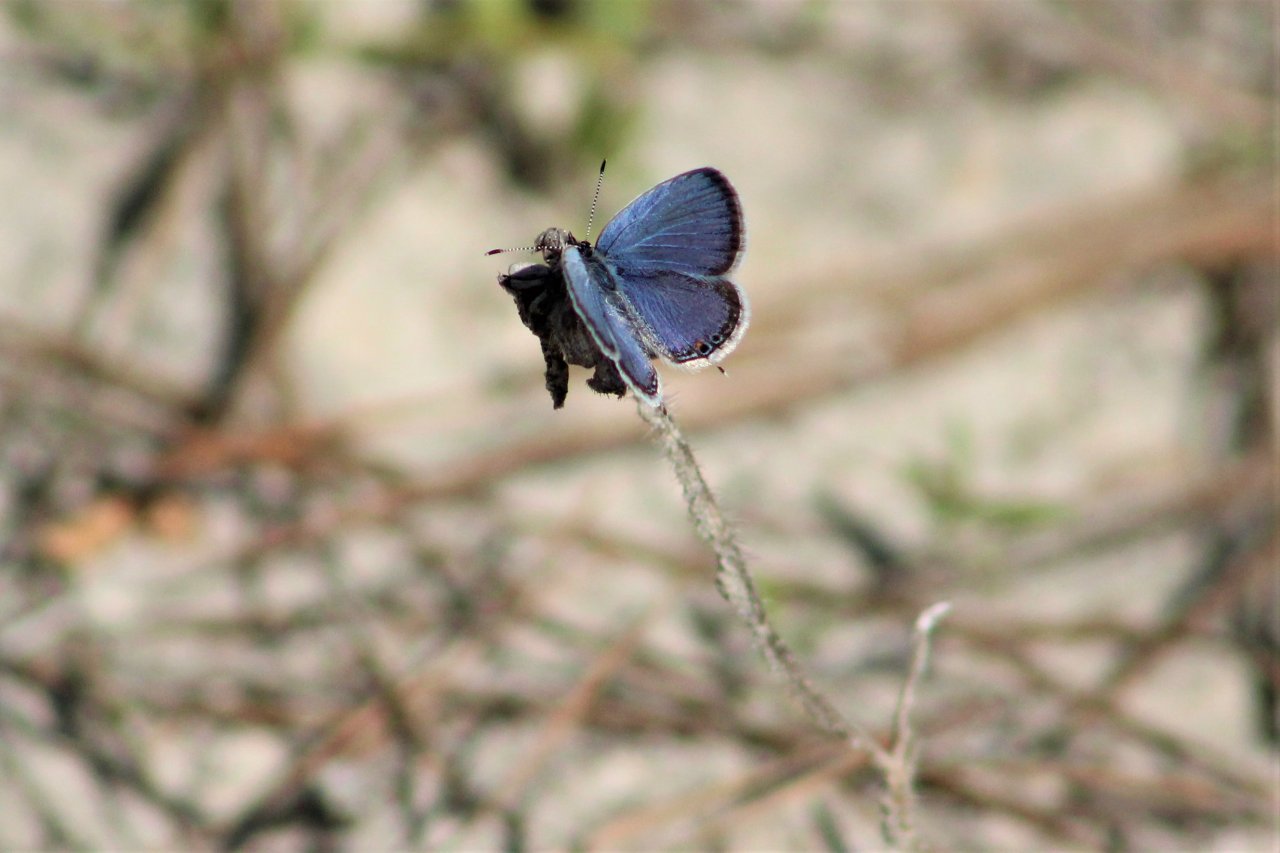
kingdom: Animalia
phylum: Arthropoda
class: Insecta
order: Lepidoptera
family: Lycaenidae
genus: Elkalyce
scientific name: Elkalyce comyntas
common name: Eastern Tailed-Blue
